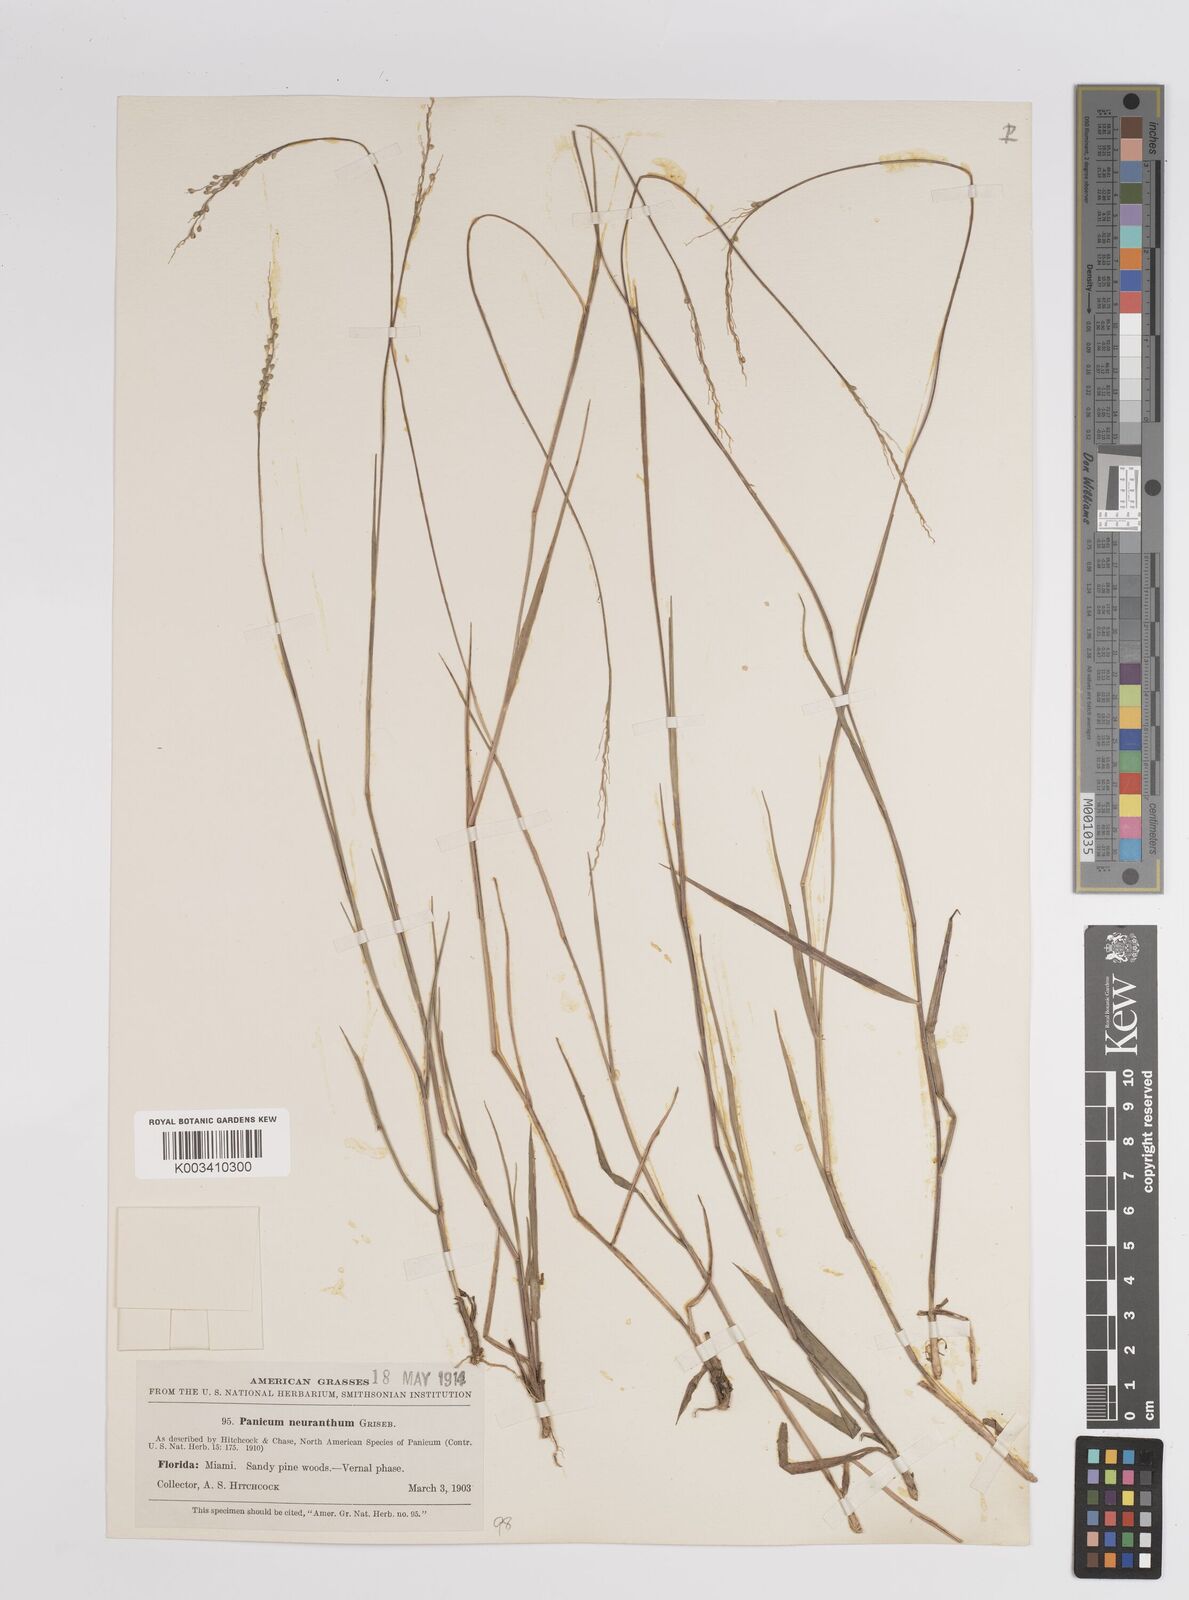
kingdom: Plantae
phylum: Tracheophyta
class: Liliopsida
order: Poales
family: Poaceae
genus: Dichanthelium
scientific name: Dichanthelium aciculare
